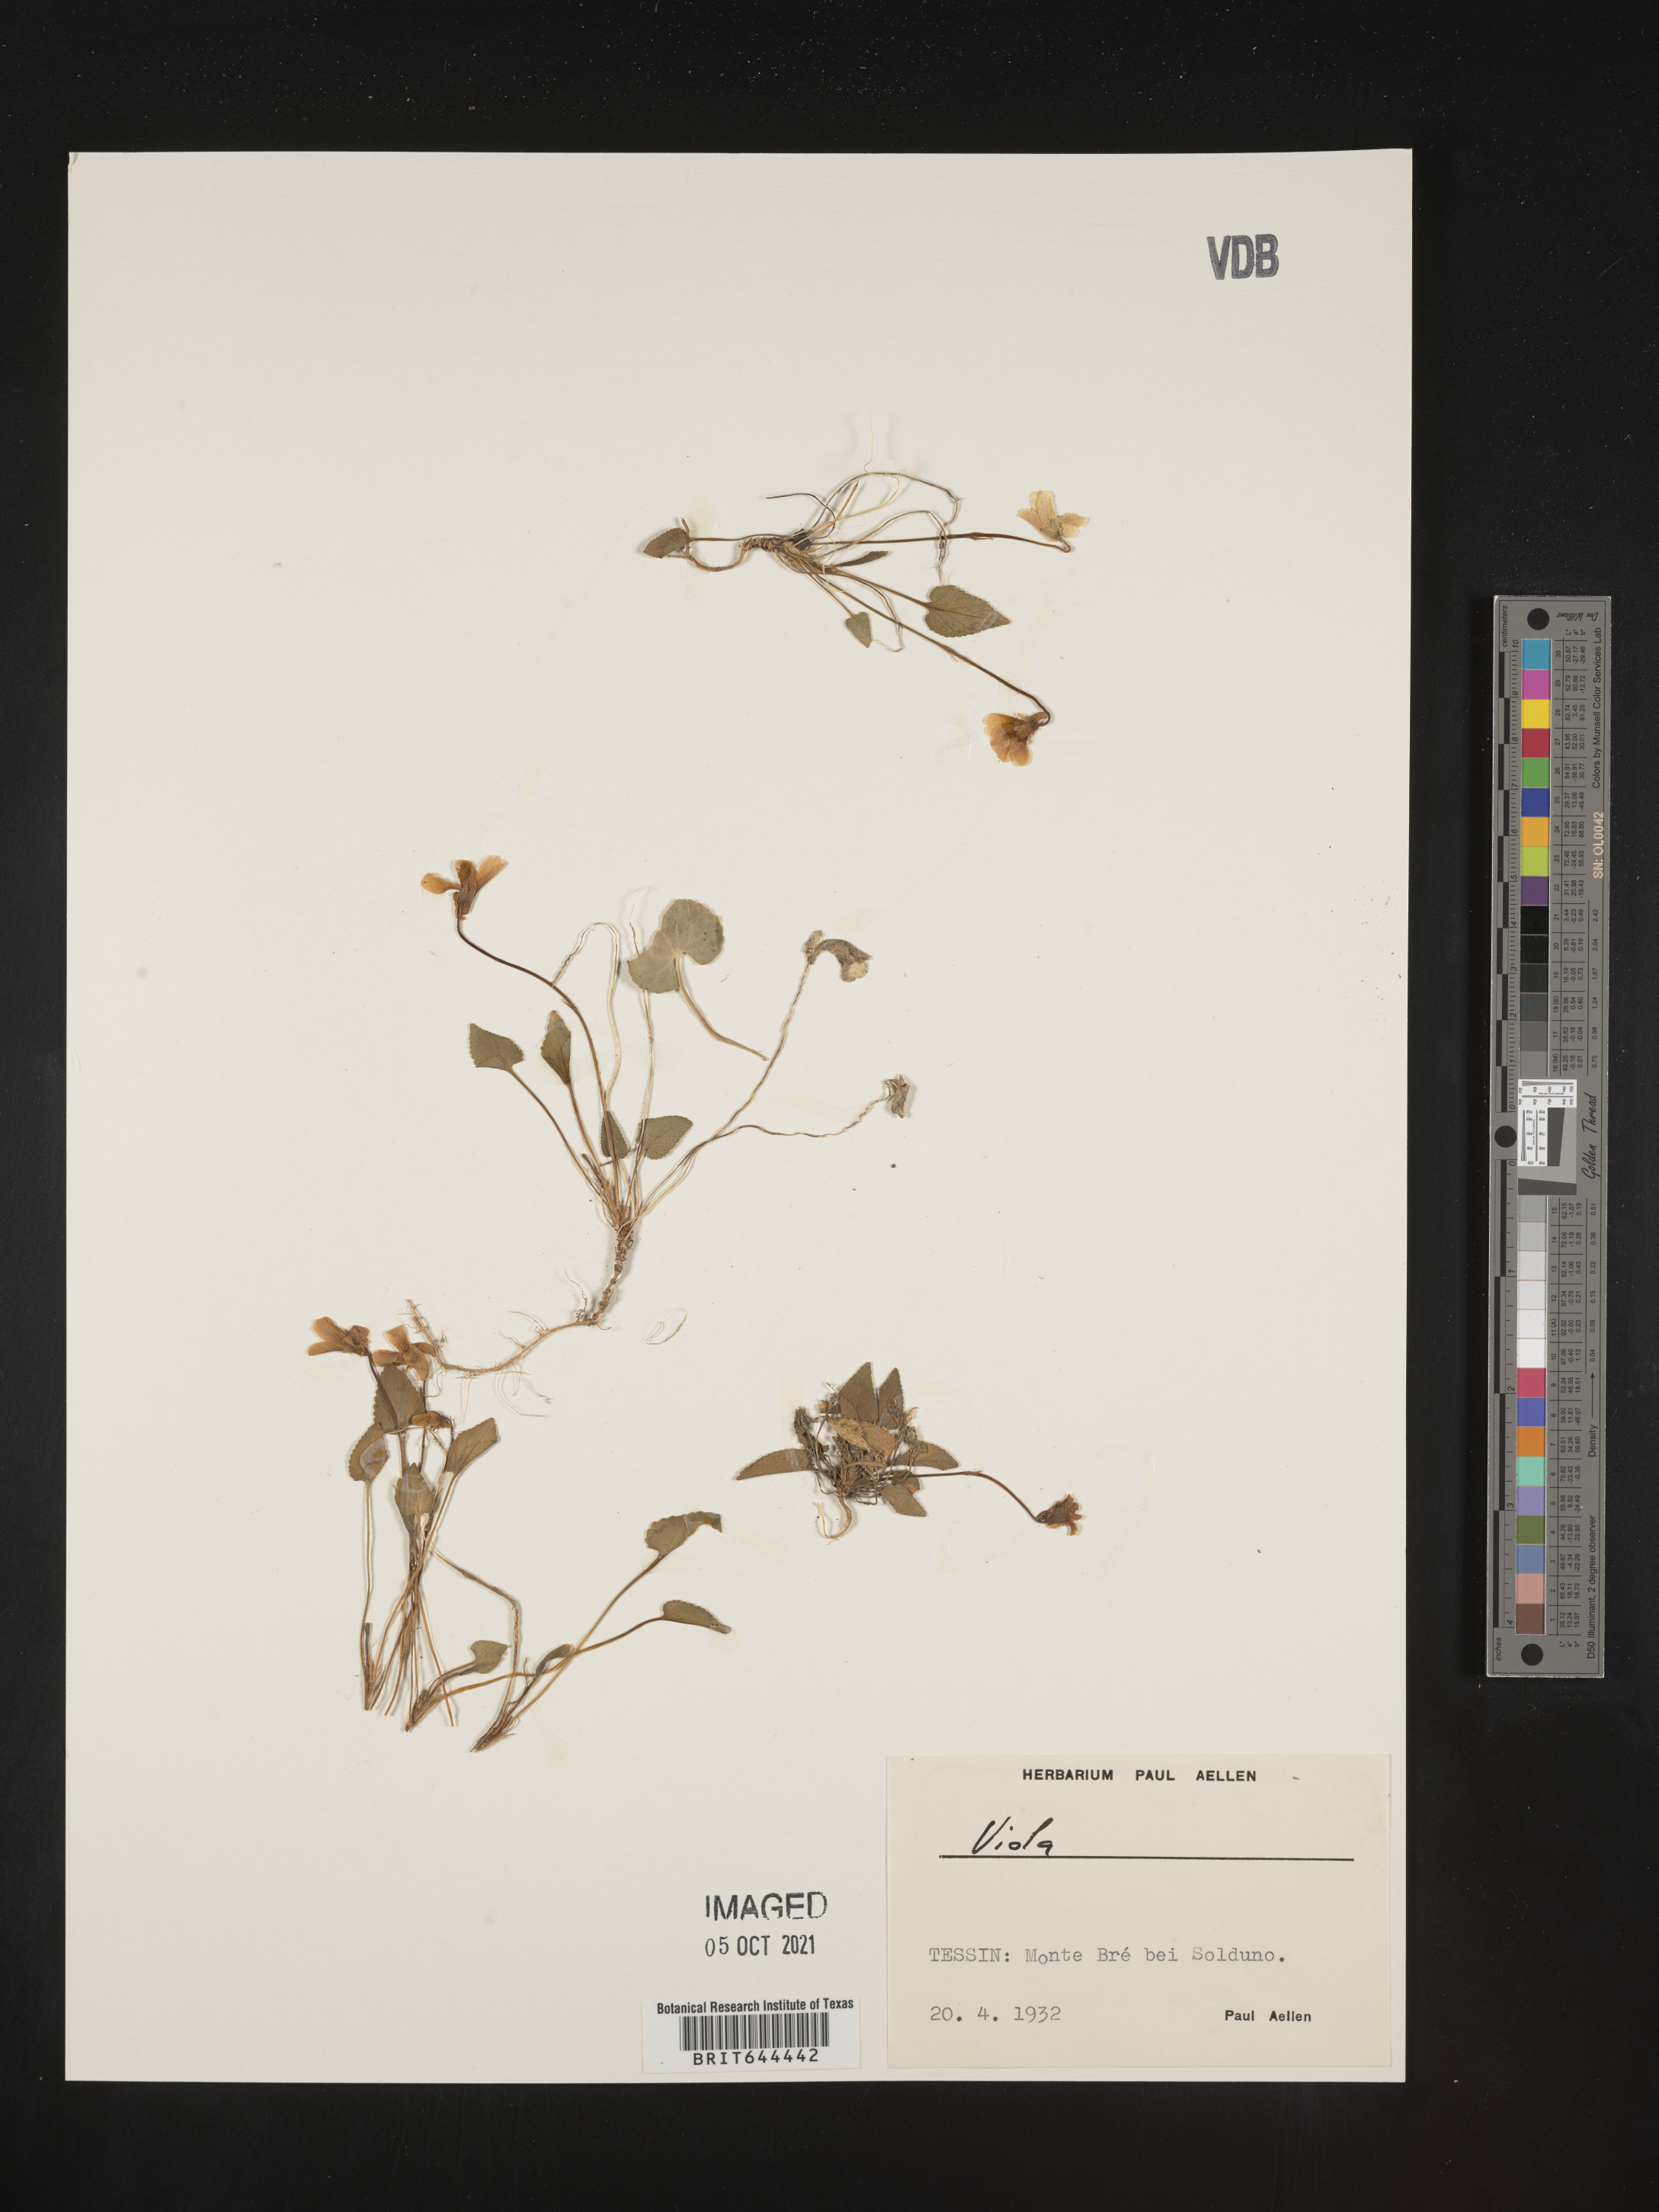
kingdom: Plantae
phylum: Tracheophyta
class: Magnoliopsida
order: Malpighiales
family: Violaceae
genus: Viola
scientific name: Viola
